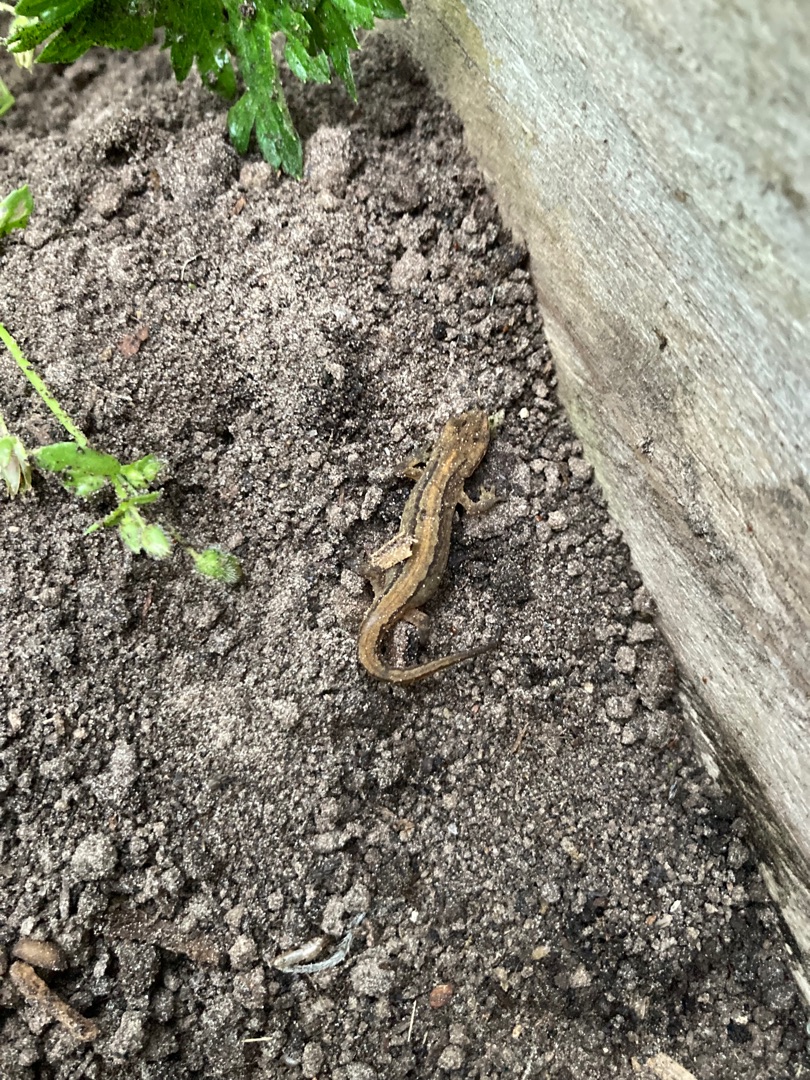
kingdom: Animalia
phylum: Chordata
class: Amphibia
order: Caudata
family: Salamandridae
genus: Lissotriton
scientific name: Lissotriton vulgaris
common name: Lille vandsalamander
